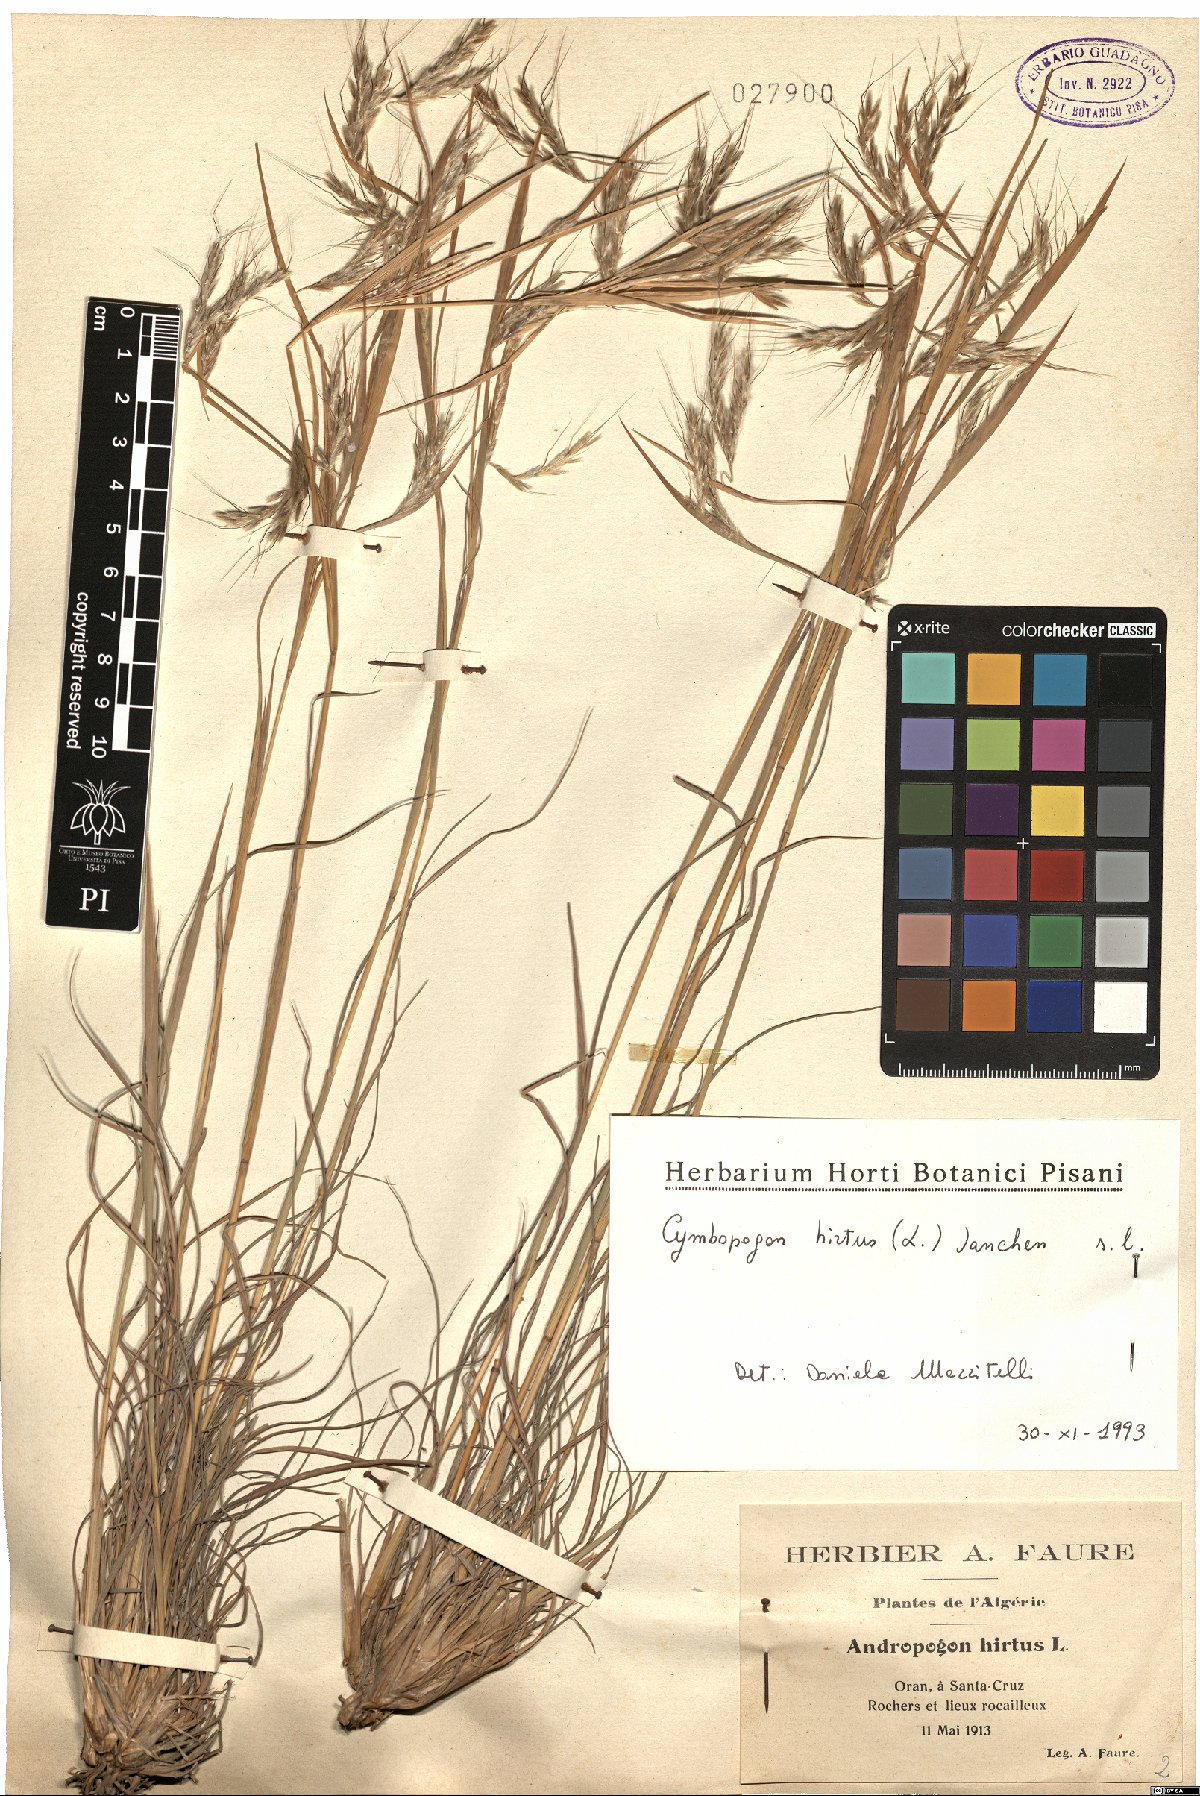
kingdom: Plantae
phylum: Tracheophyta
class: Liliopsida
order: Poales
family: Poaceae
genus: Hyparrhenia
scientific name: Hyparrhenia hirta
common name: Thatching grass
